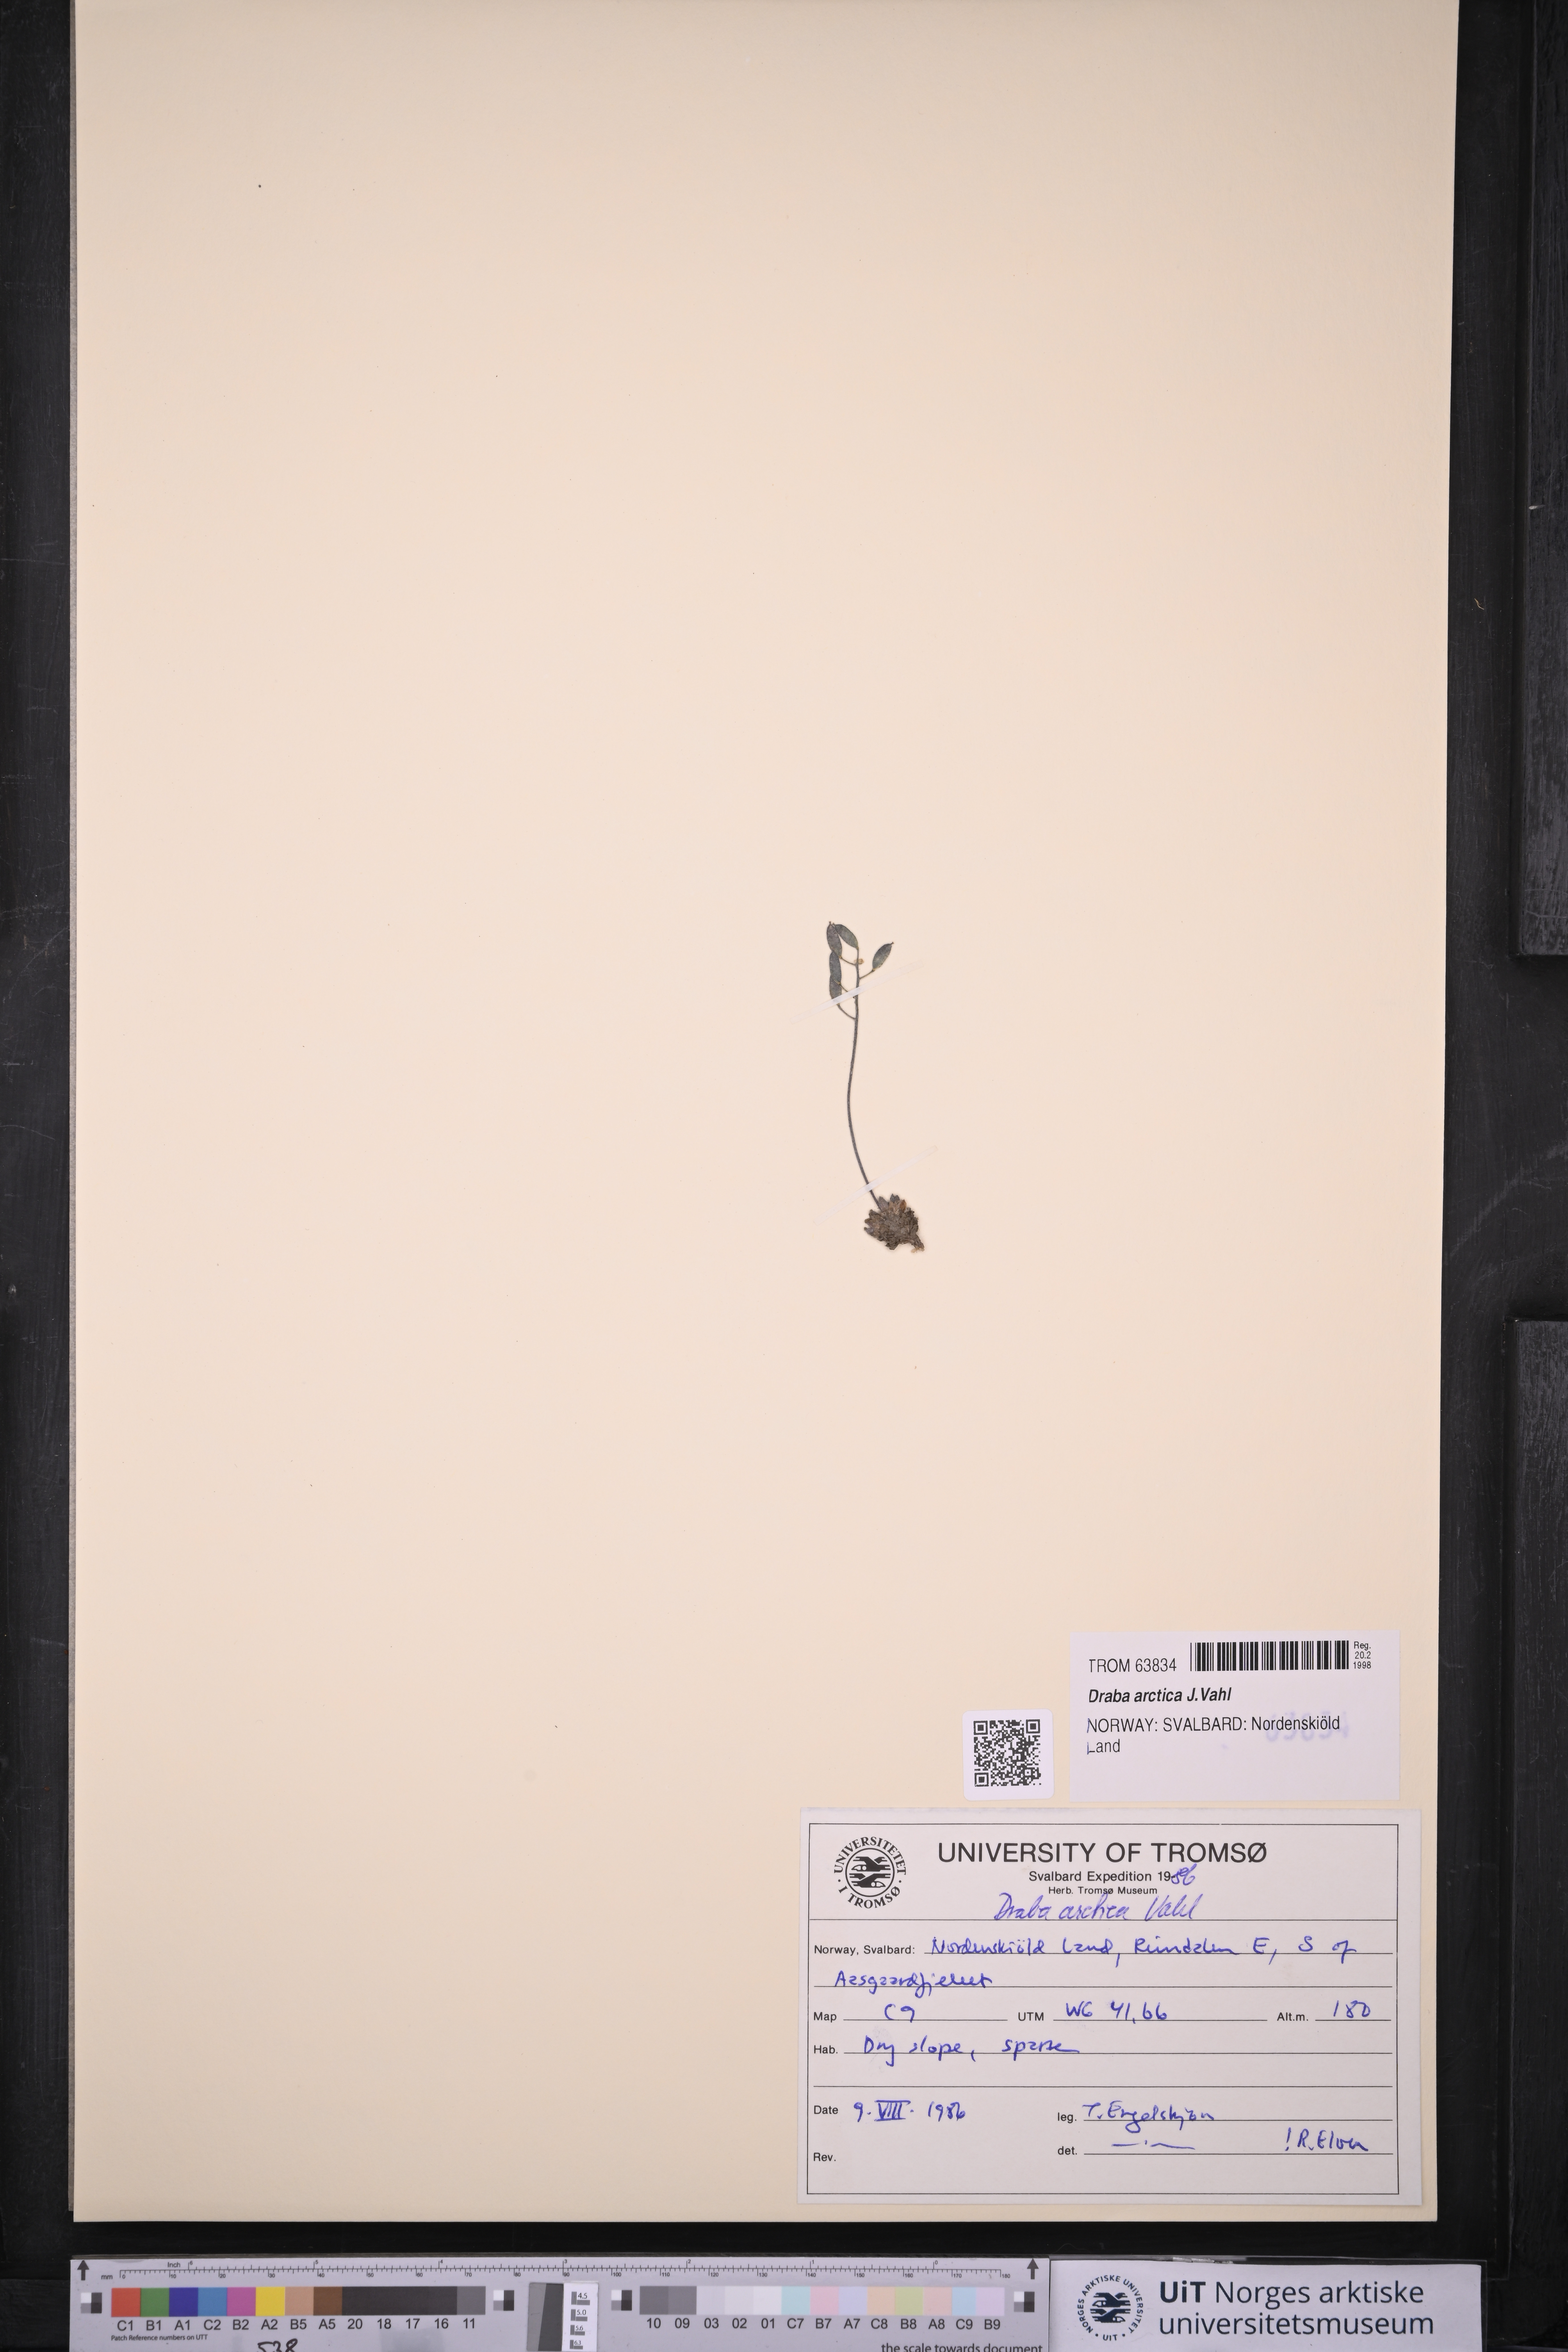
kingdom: Plantae
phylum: Tracheophyta
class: Magnoliopsida
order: Brassicales
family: Brassicaceae
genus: Draba
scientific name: Draba arctica
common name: Arctic draba
